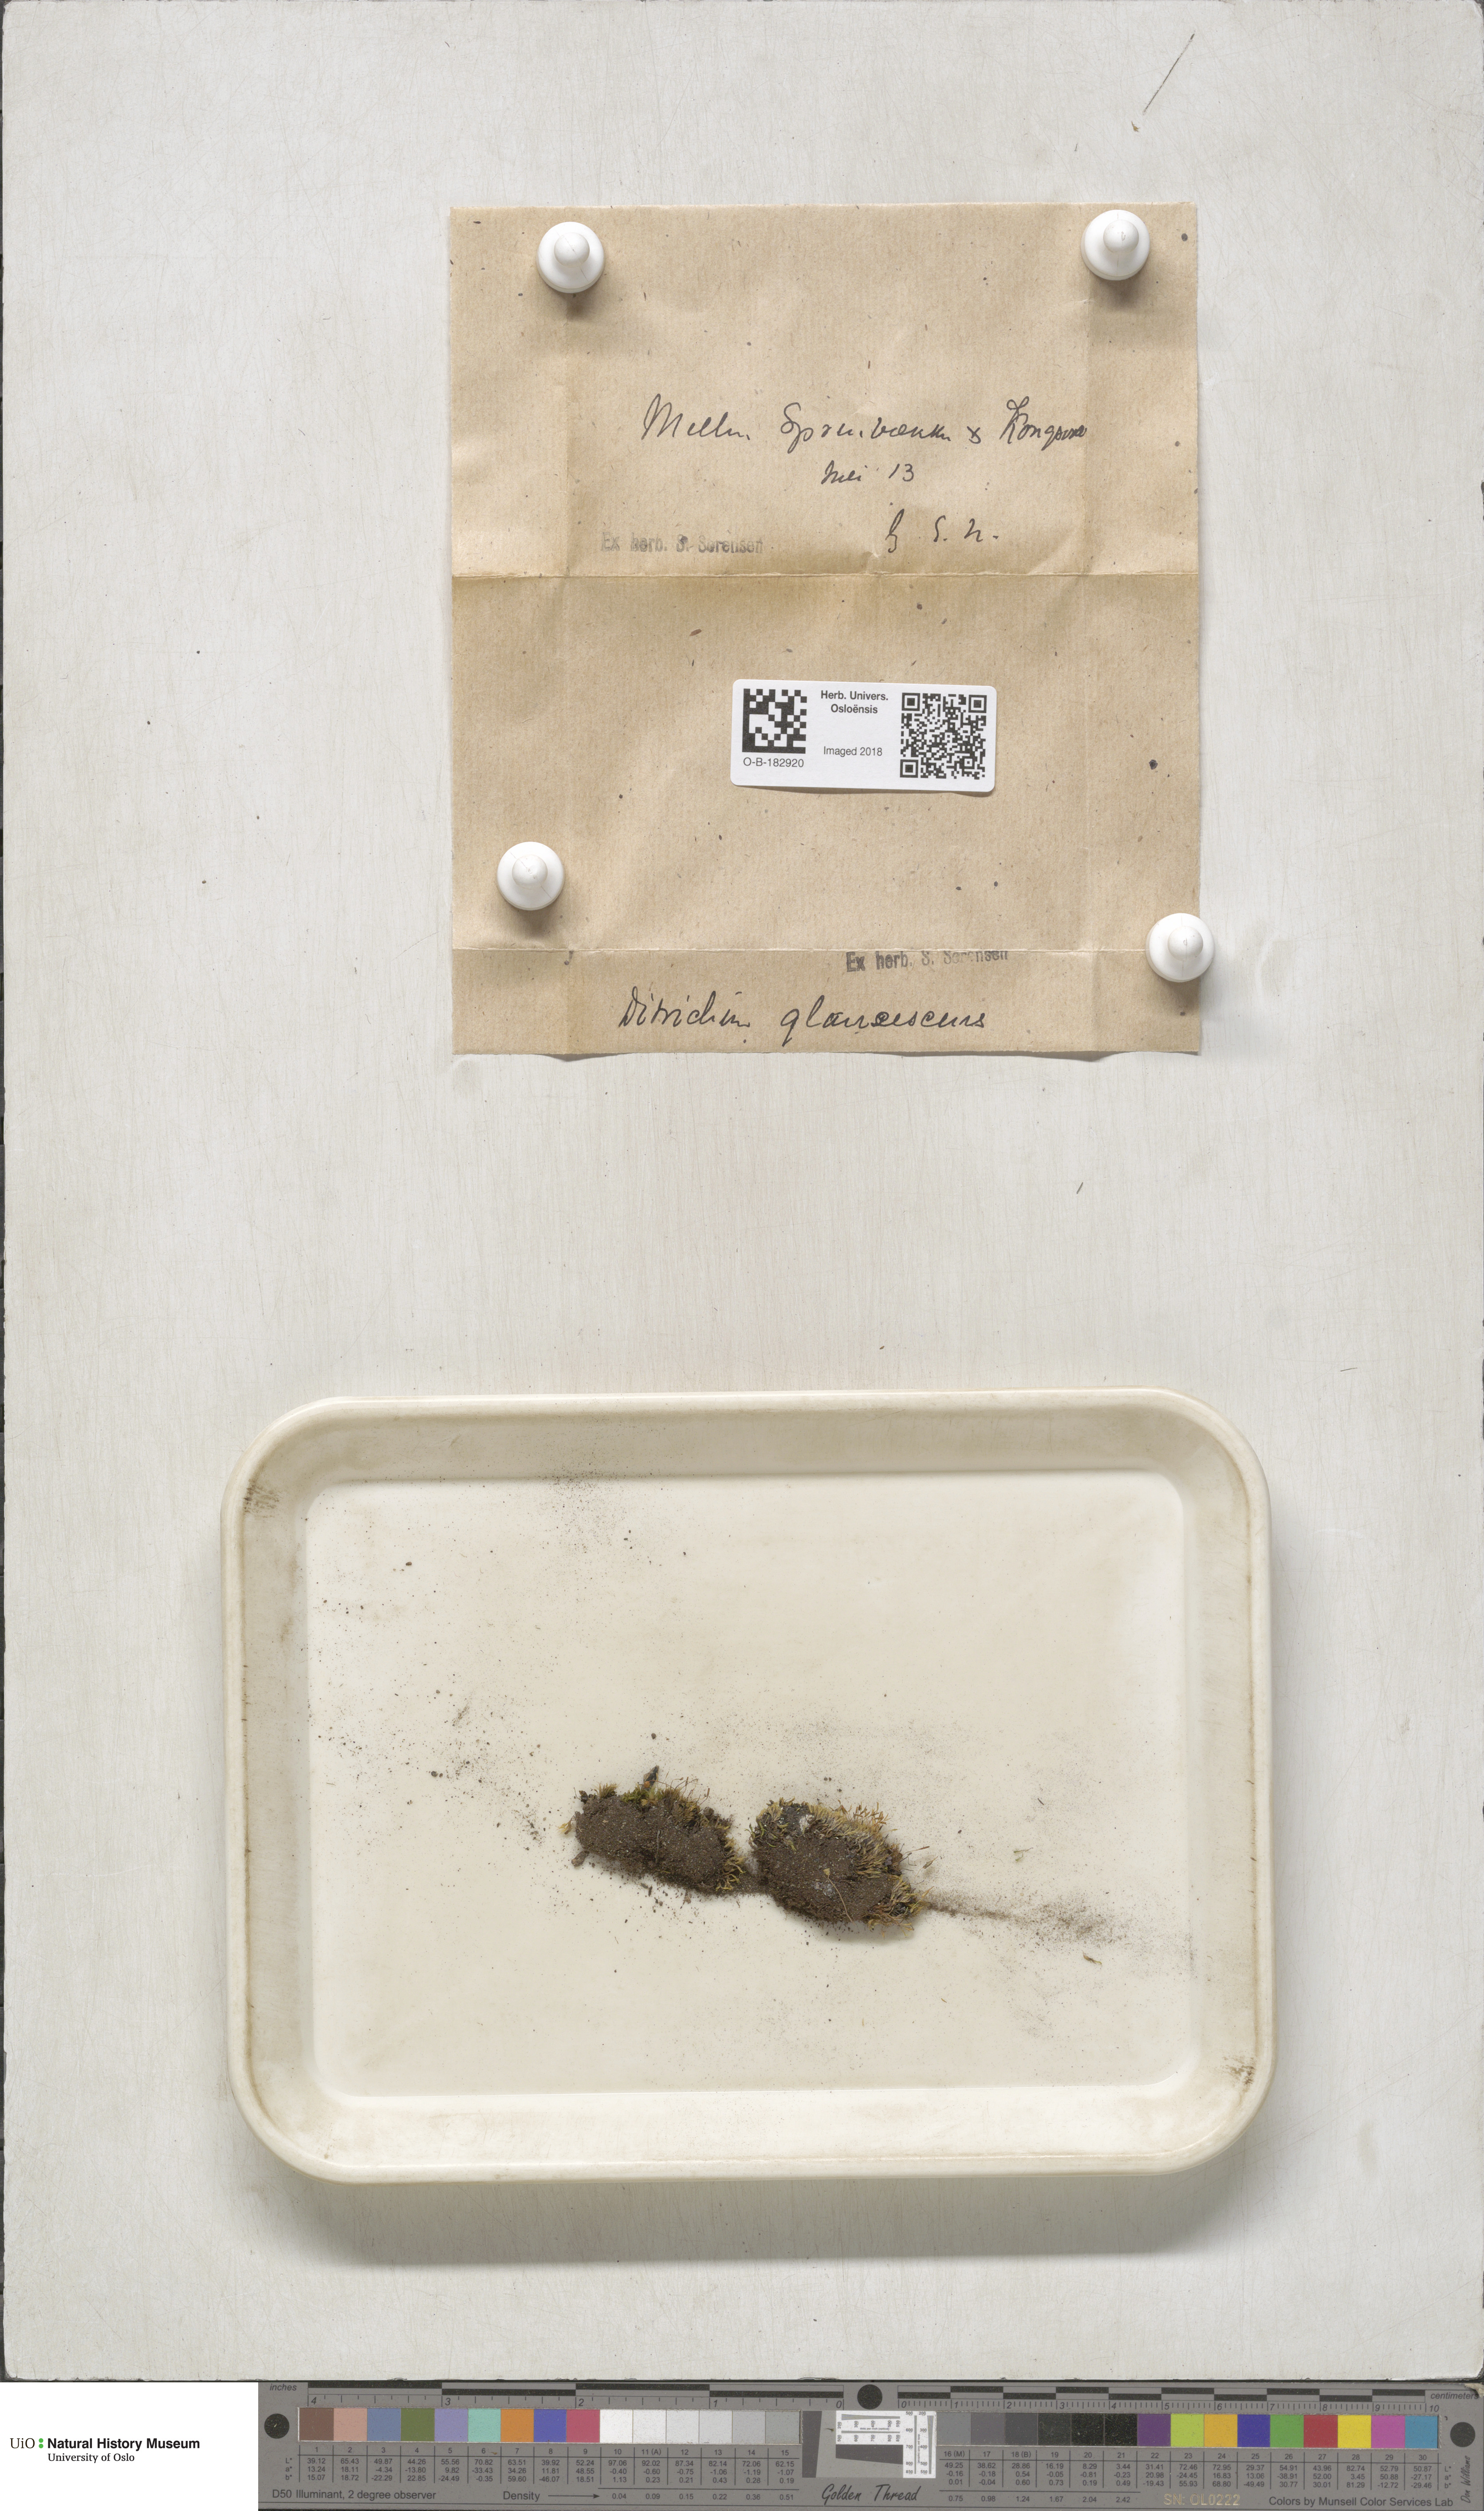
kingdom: Plantae
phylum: Bryophyta
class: Bryopsida
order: Grimmiales
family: Saelaniaceae
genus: Saelania
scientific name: Saelania glaucescens
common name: Blue dew-moss
